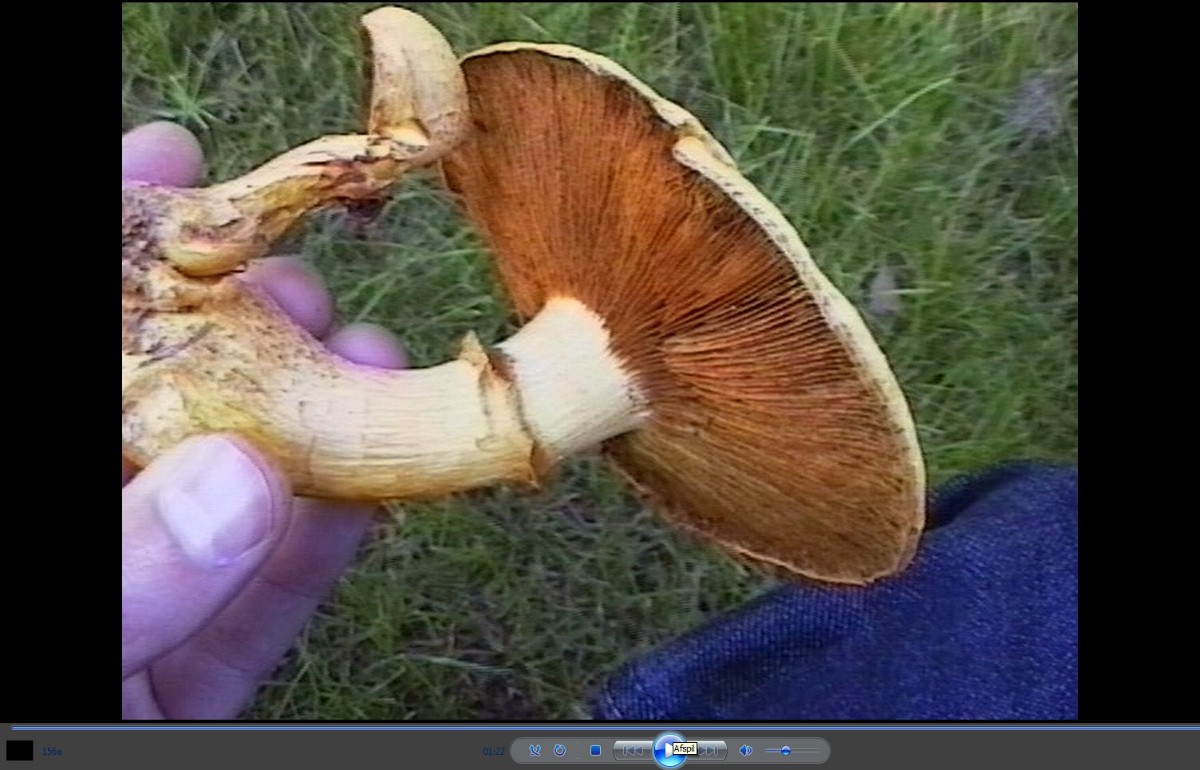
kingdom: Fungi
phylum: Basidiomycota
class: Agaricomycetes
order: Agaricales
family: Hymenogastraceae
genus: Gymnopilus
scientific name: Gymnopilus spectabilis
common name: fibret flammehat
